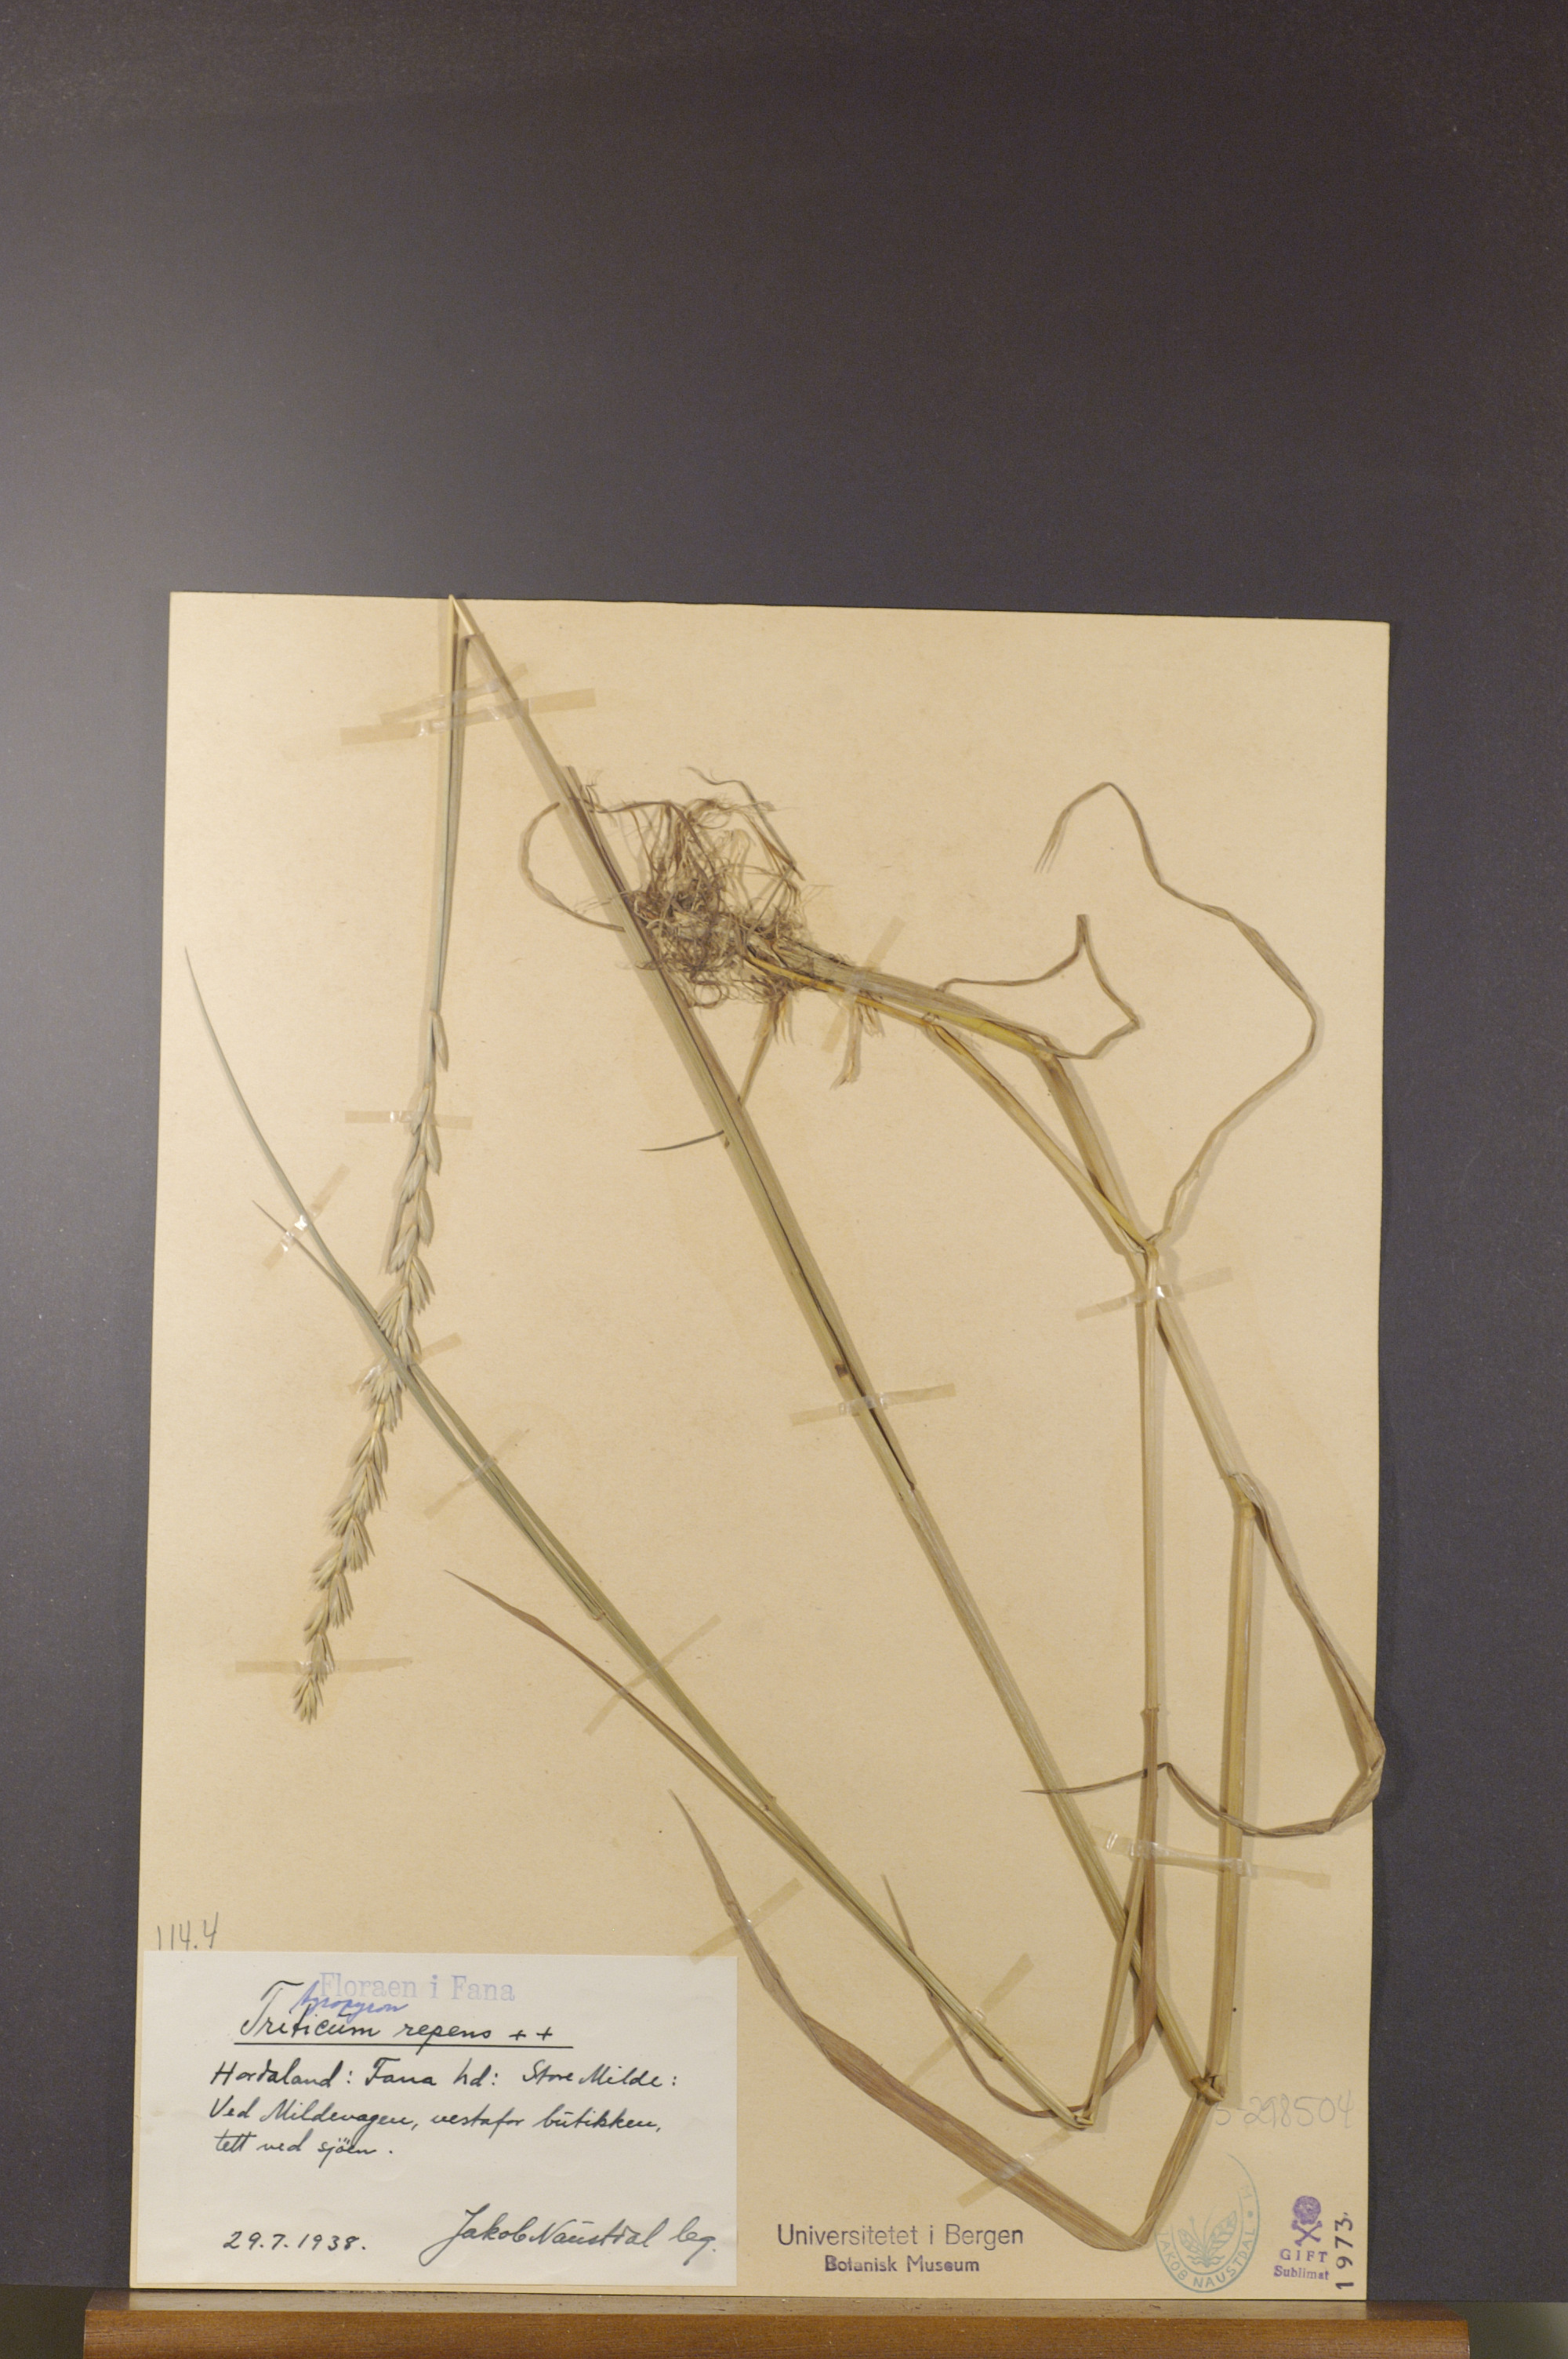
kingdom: Plantae
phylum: Tracheophyta
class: Liliopsida
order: Poales
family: Poaceae
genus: Elymus
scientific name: Elymus repens
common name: Quackgrass
